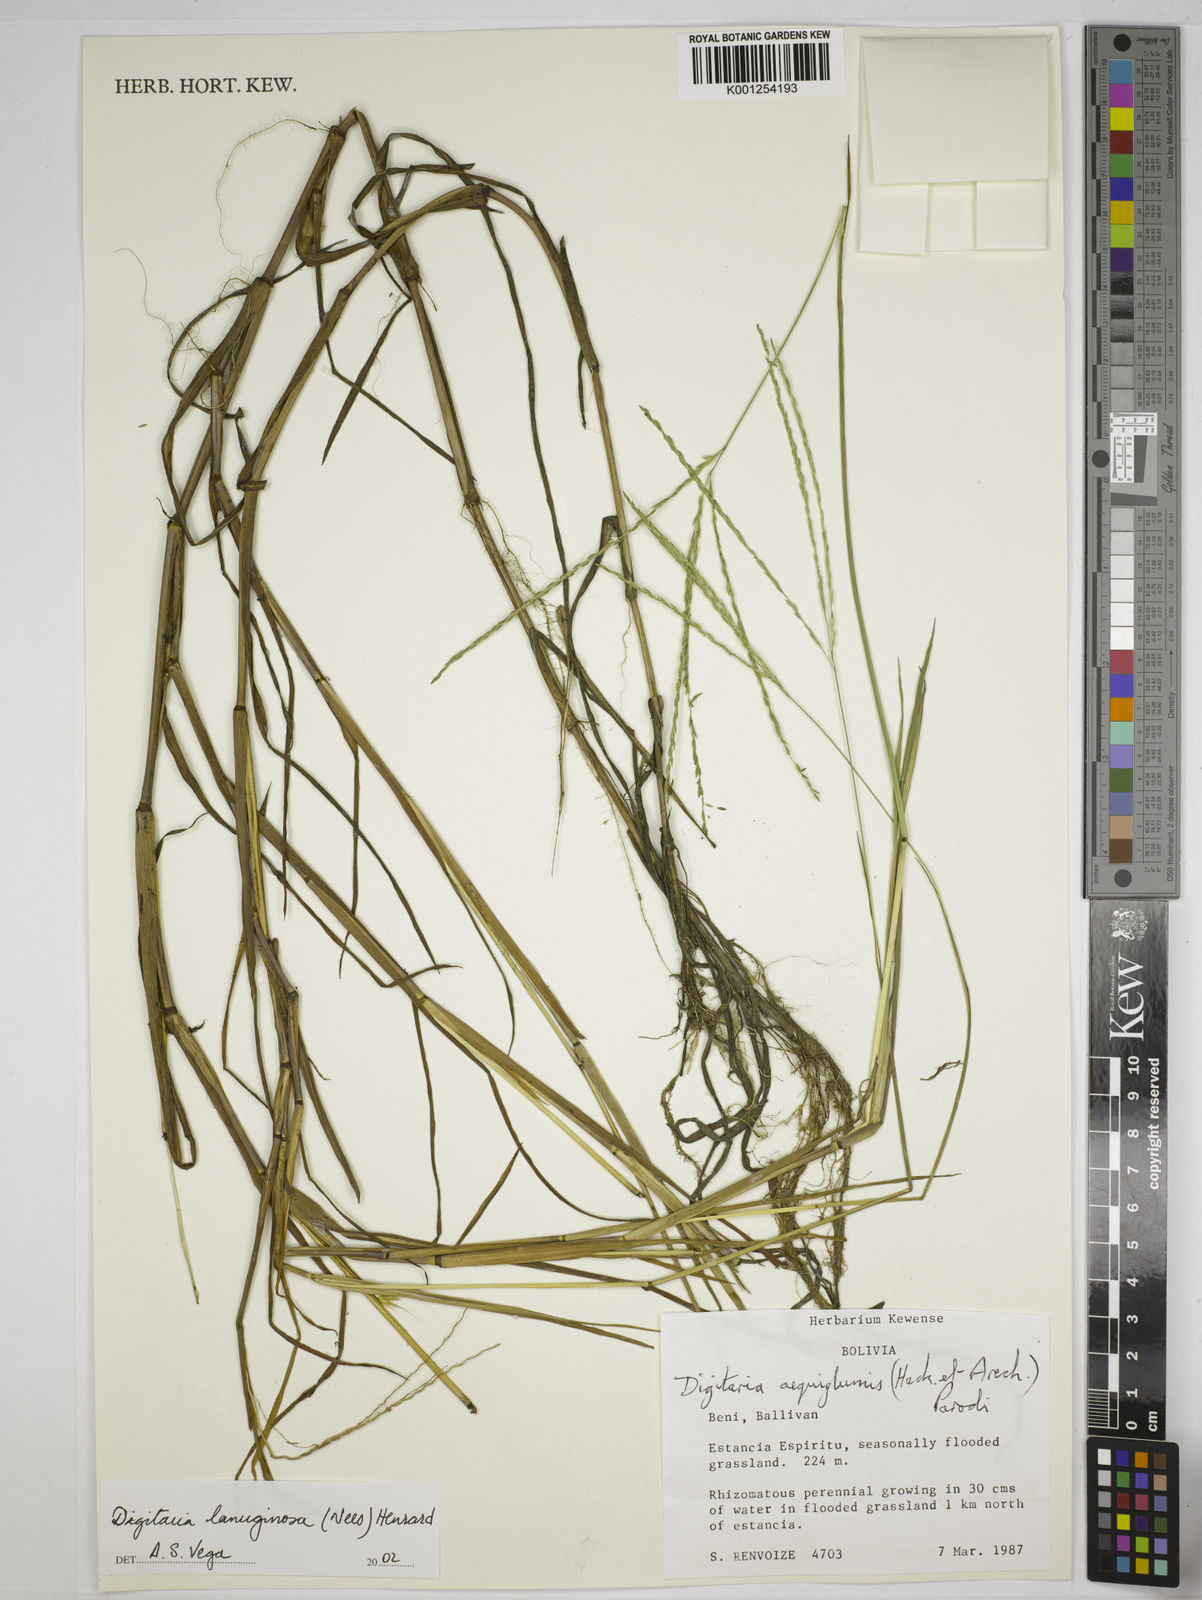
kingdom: Plantae
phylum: Tracheophyta
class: Liliopsida
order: Poales
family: Poaceae
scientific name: Poaceae
